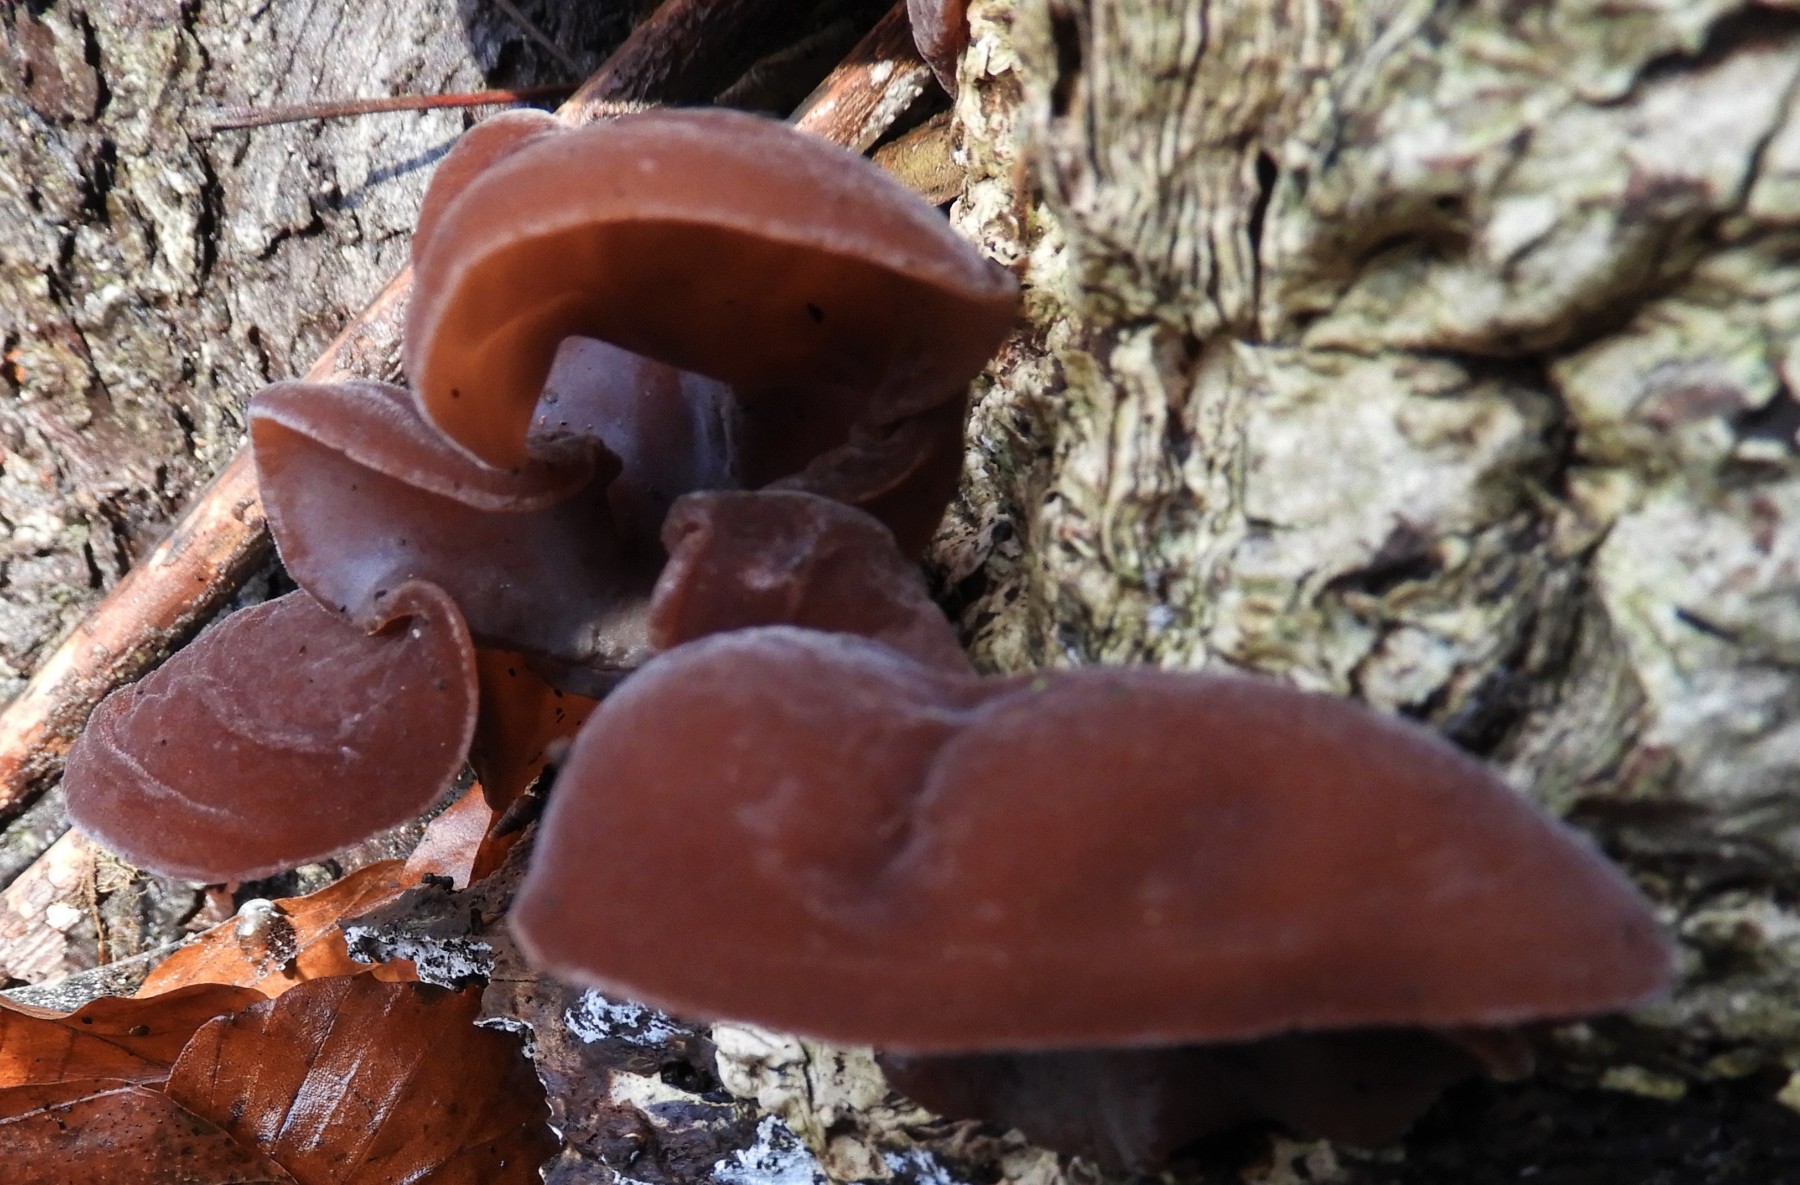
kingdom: Fungi
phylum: Basidiomycota
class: Agaricomycetes
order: Auriculariales
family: Auriculariaceae
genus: Auricularia
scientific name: Auricularia auricula-judae
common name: almindelig judasøre
